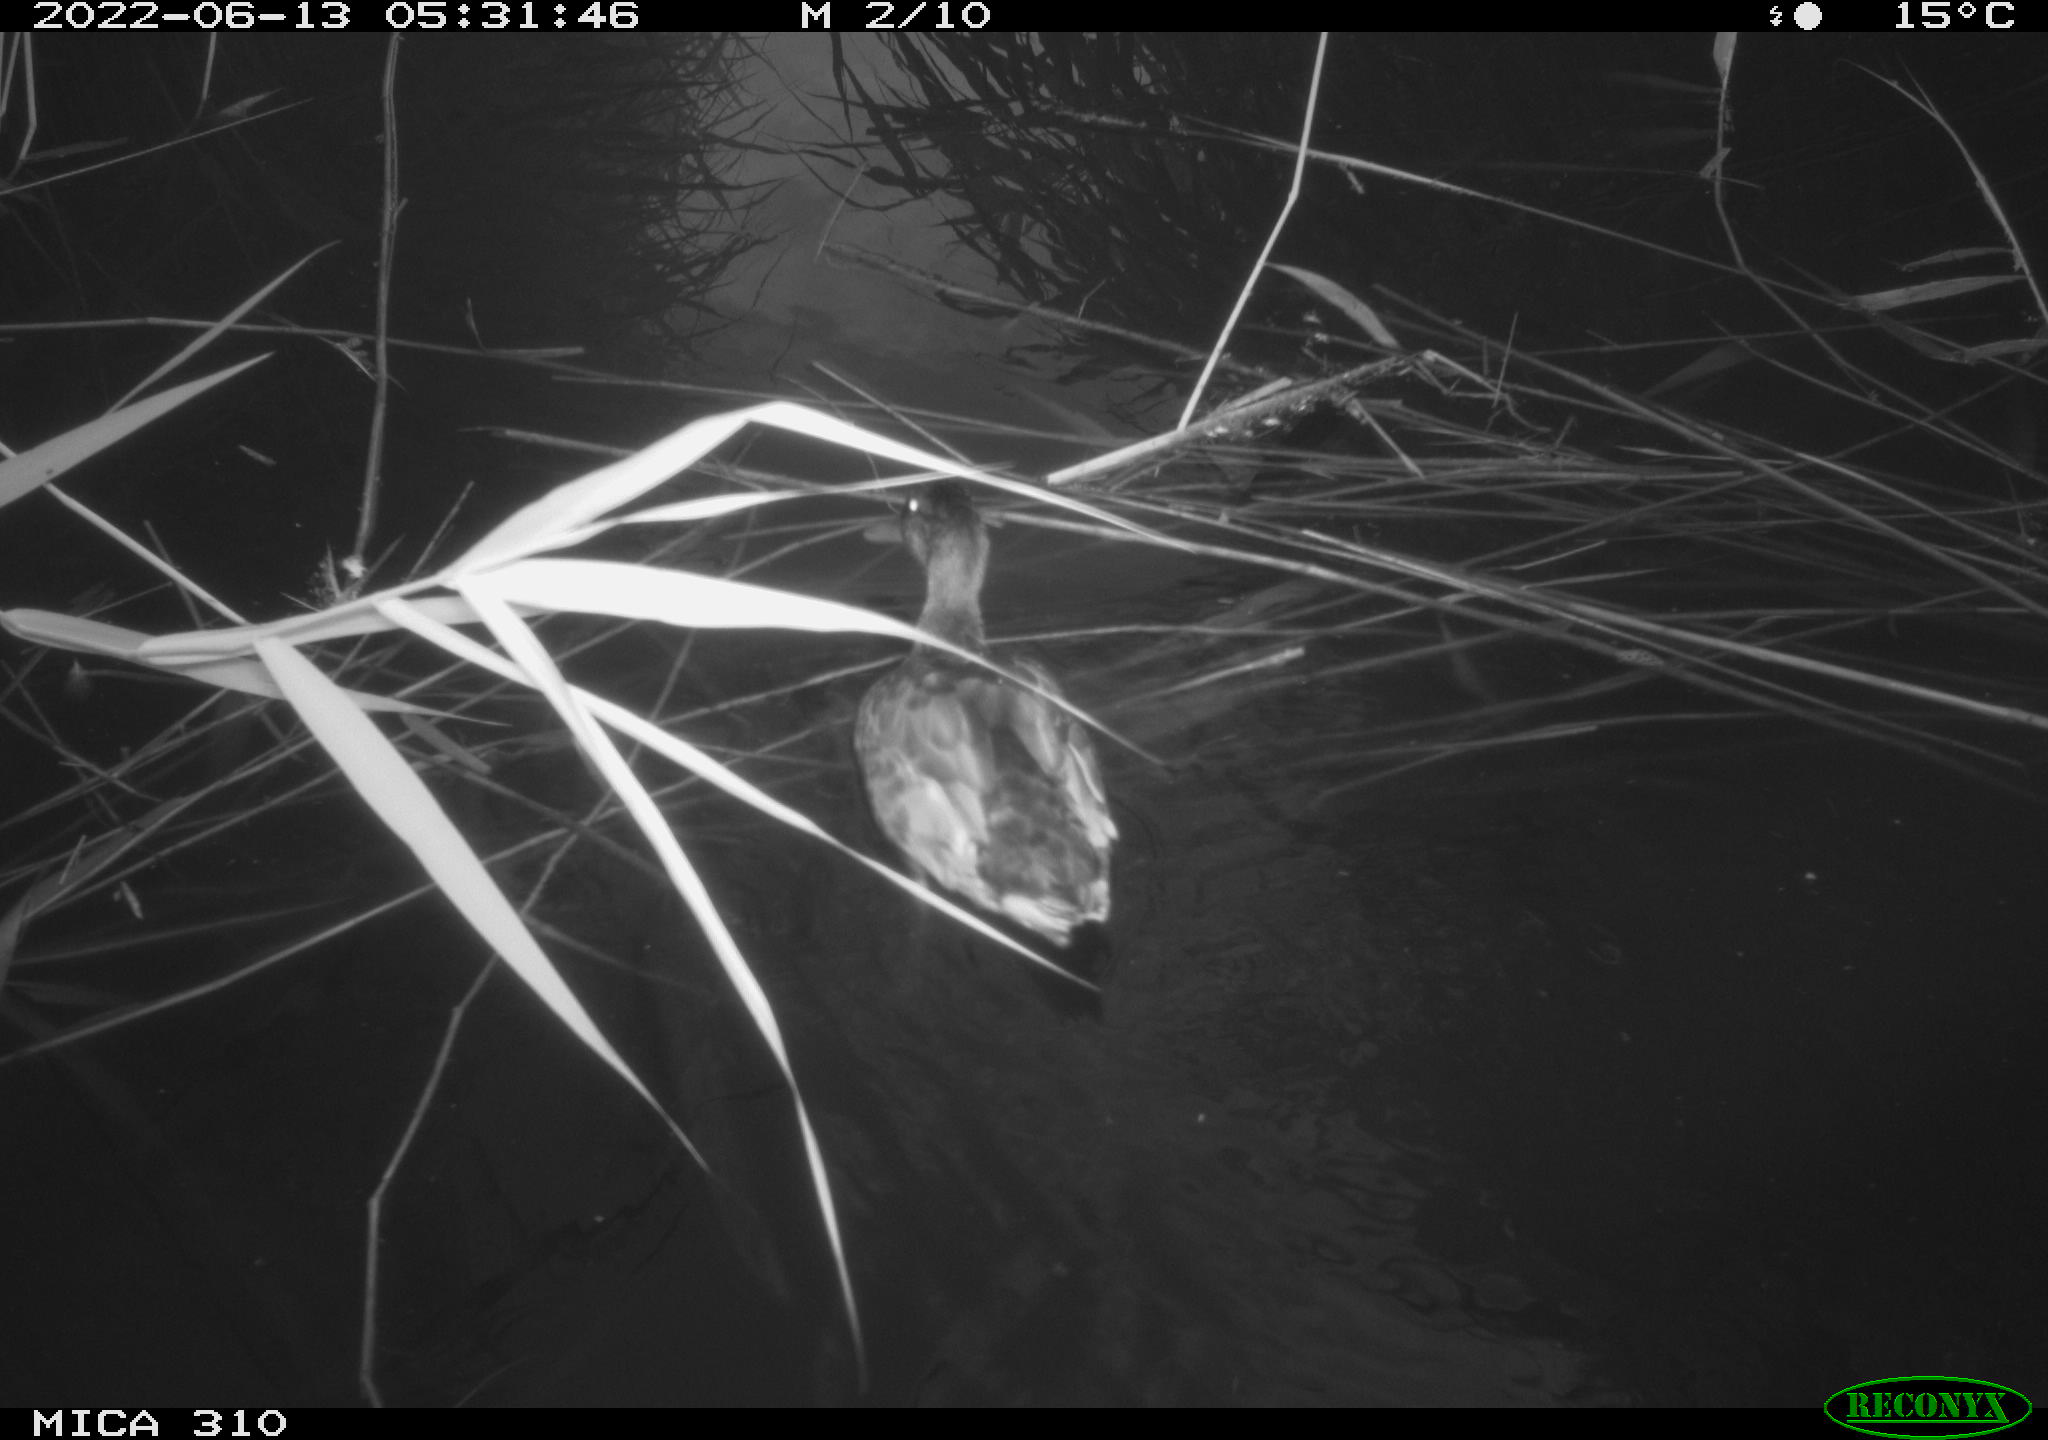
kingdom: Animalia
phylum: Chordata
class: Aves
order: Anseriformes
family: Anatidae
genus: Anas
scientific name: Anas platyrhynchos
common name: Mallard
